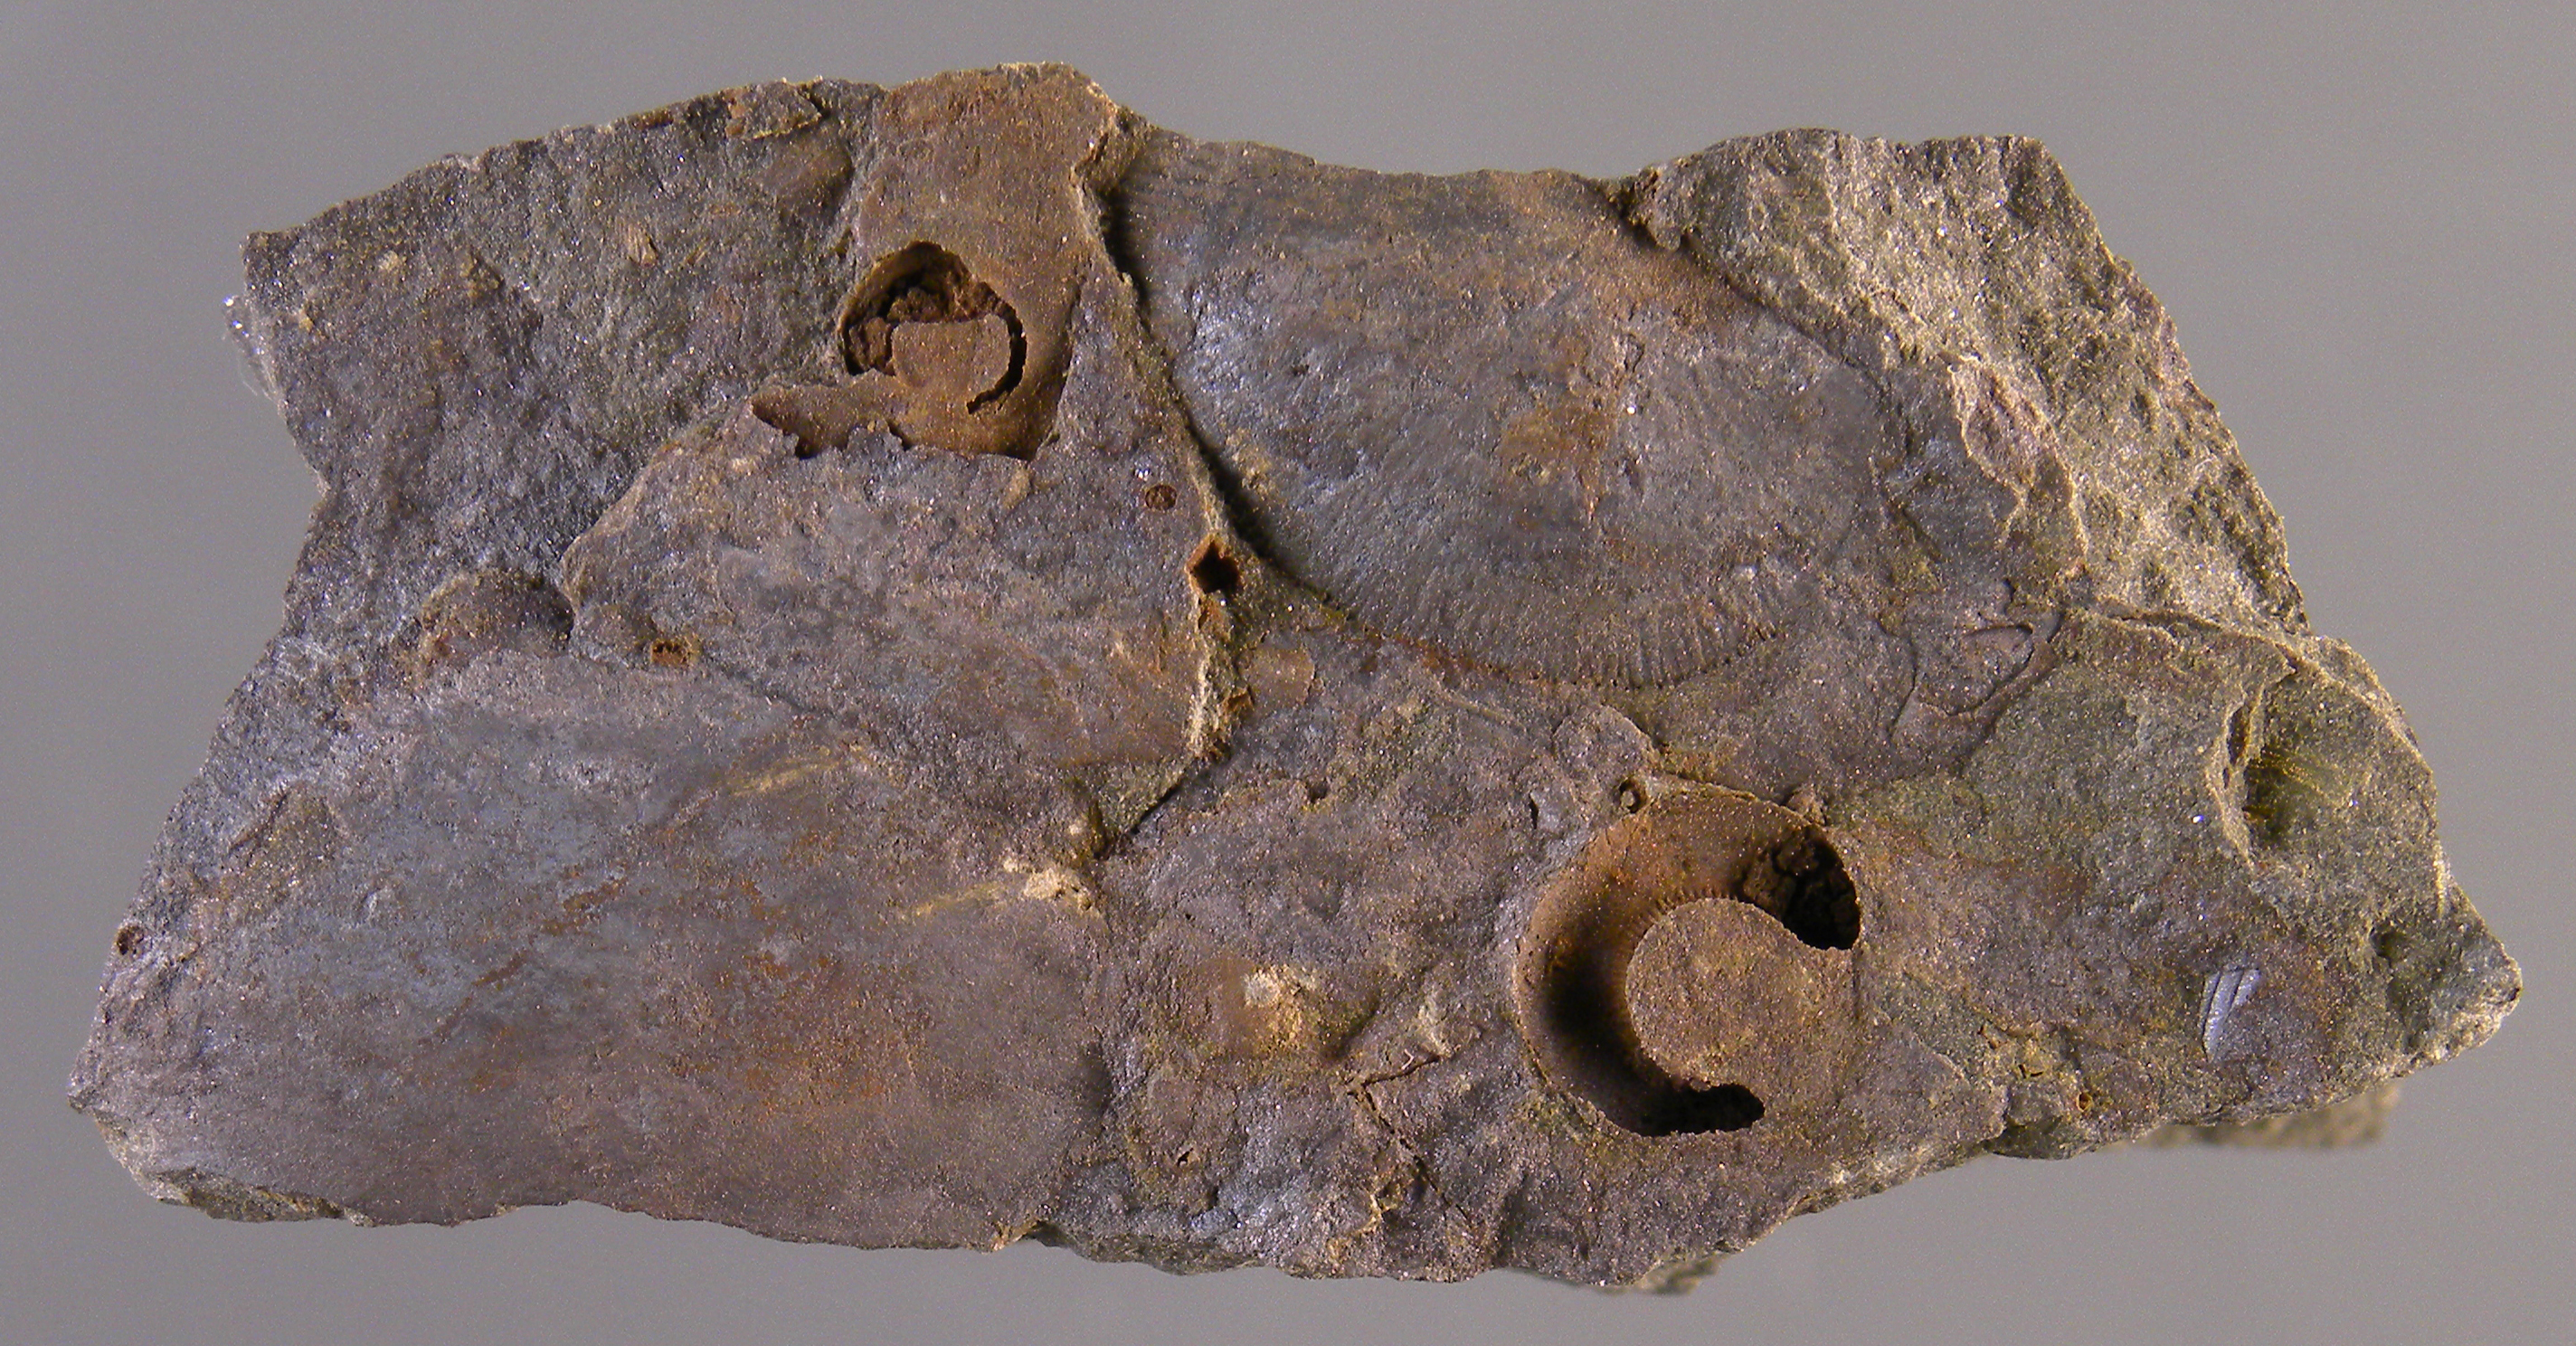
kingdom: Animalia
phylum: Echinodermata
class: Crinoidea
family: Rhodocrinitidae
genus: Acanthocrinus
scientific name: Acanthocrinus
